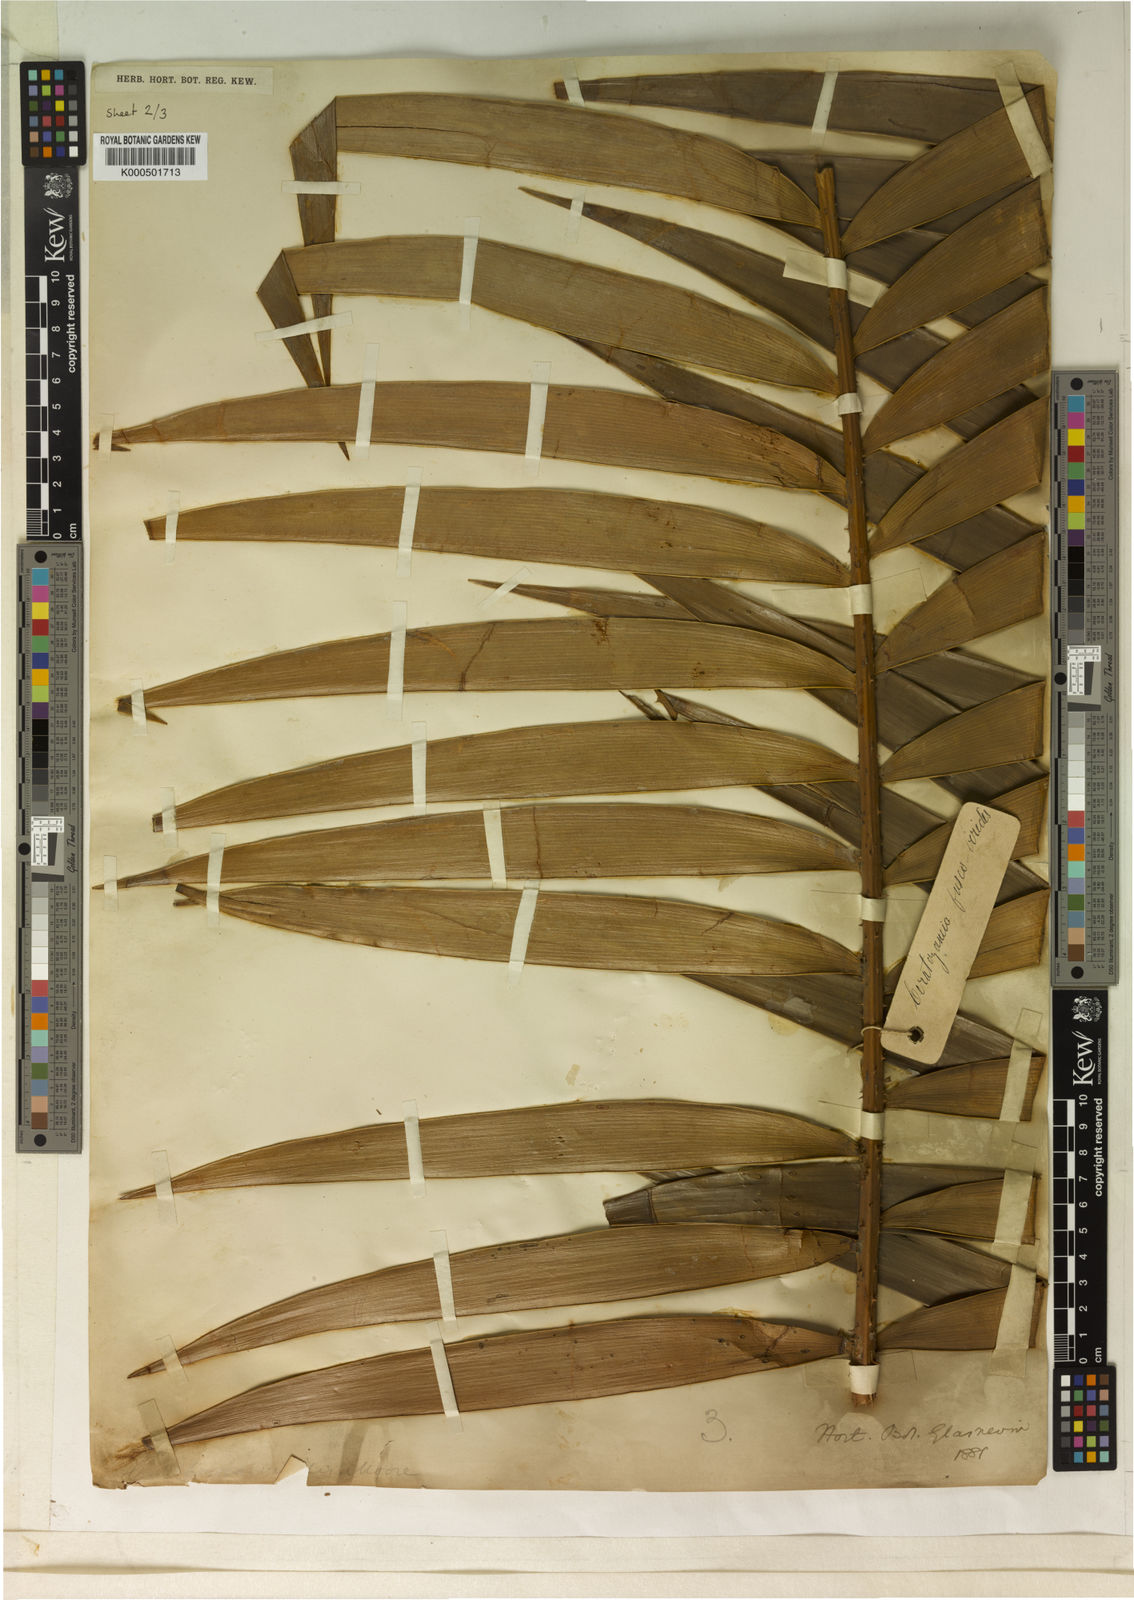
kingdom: Plantae
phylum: Tracheophyta
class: Cycadopsida
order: Cycadales
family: Zamiaceae
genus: Ceratozamia
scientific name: Ceratozamia
